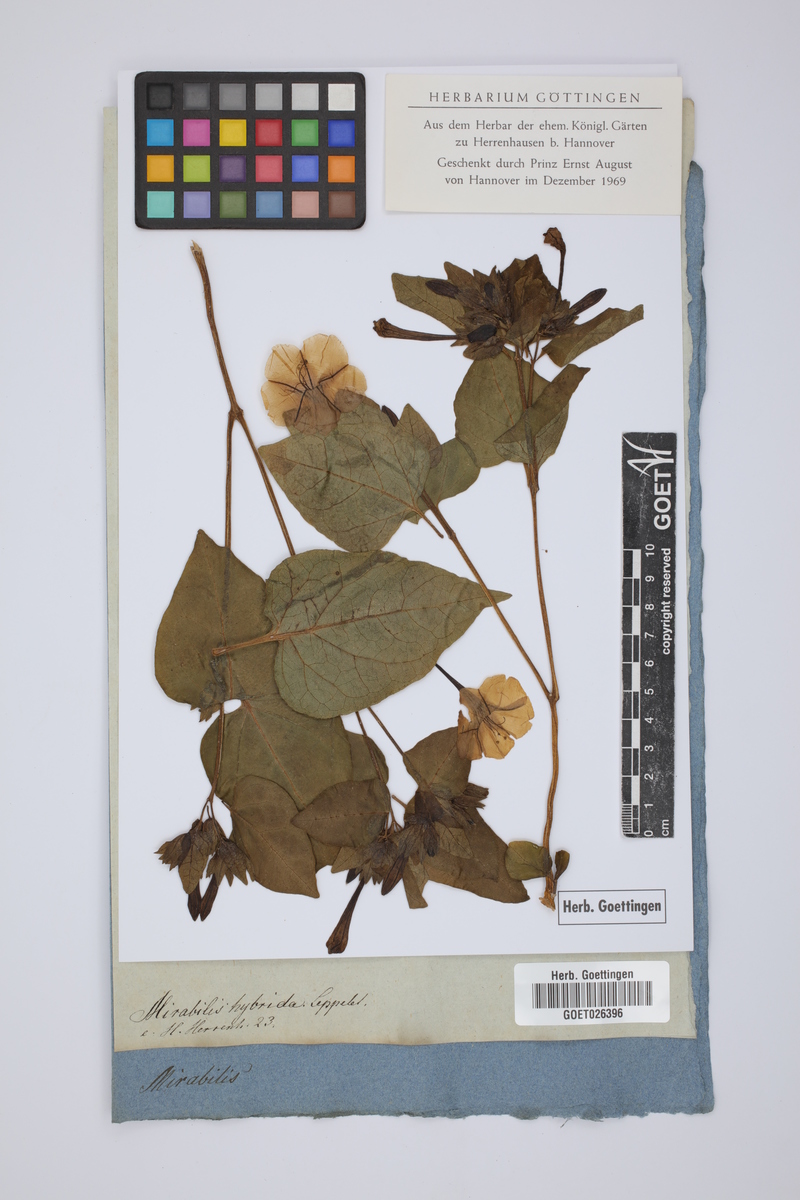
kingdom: Plantae
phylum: Tracheophyta
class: Magnoliopsida
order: Caryophyllales
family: Nyctaginaceae
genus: Mirabilis
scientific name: Mirabilis jalapa
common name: Marvel-of-peru
